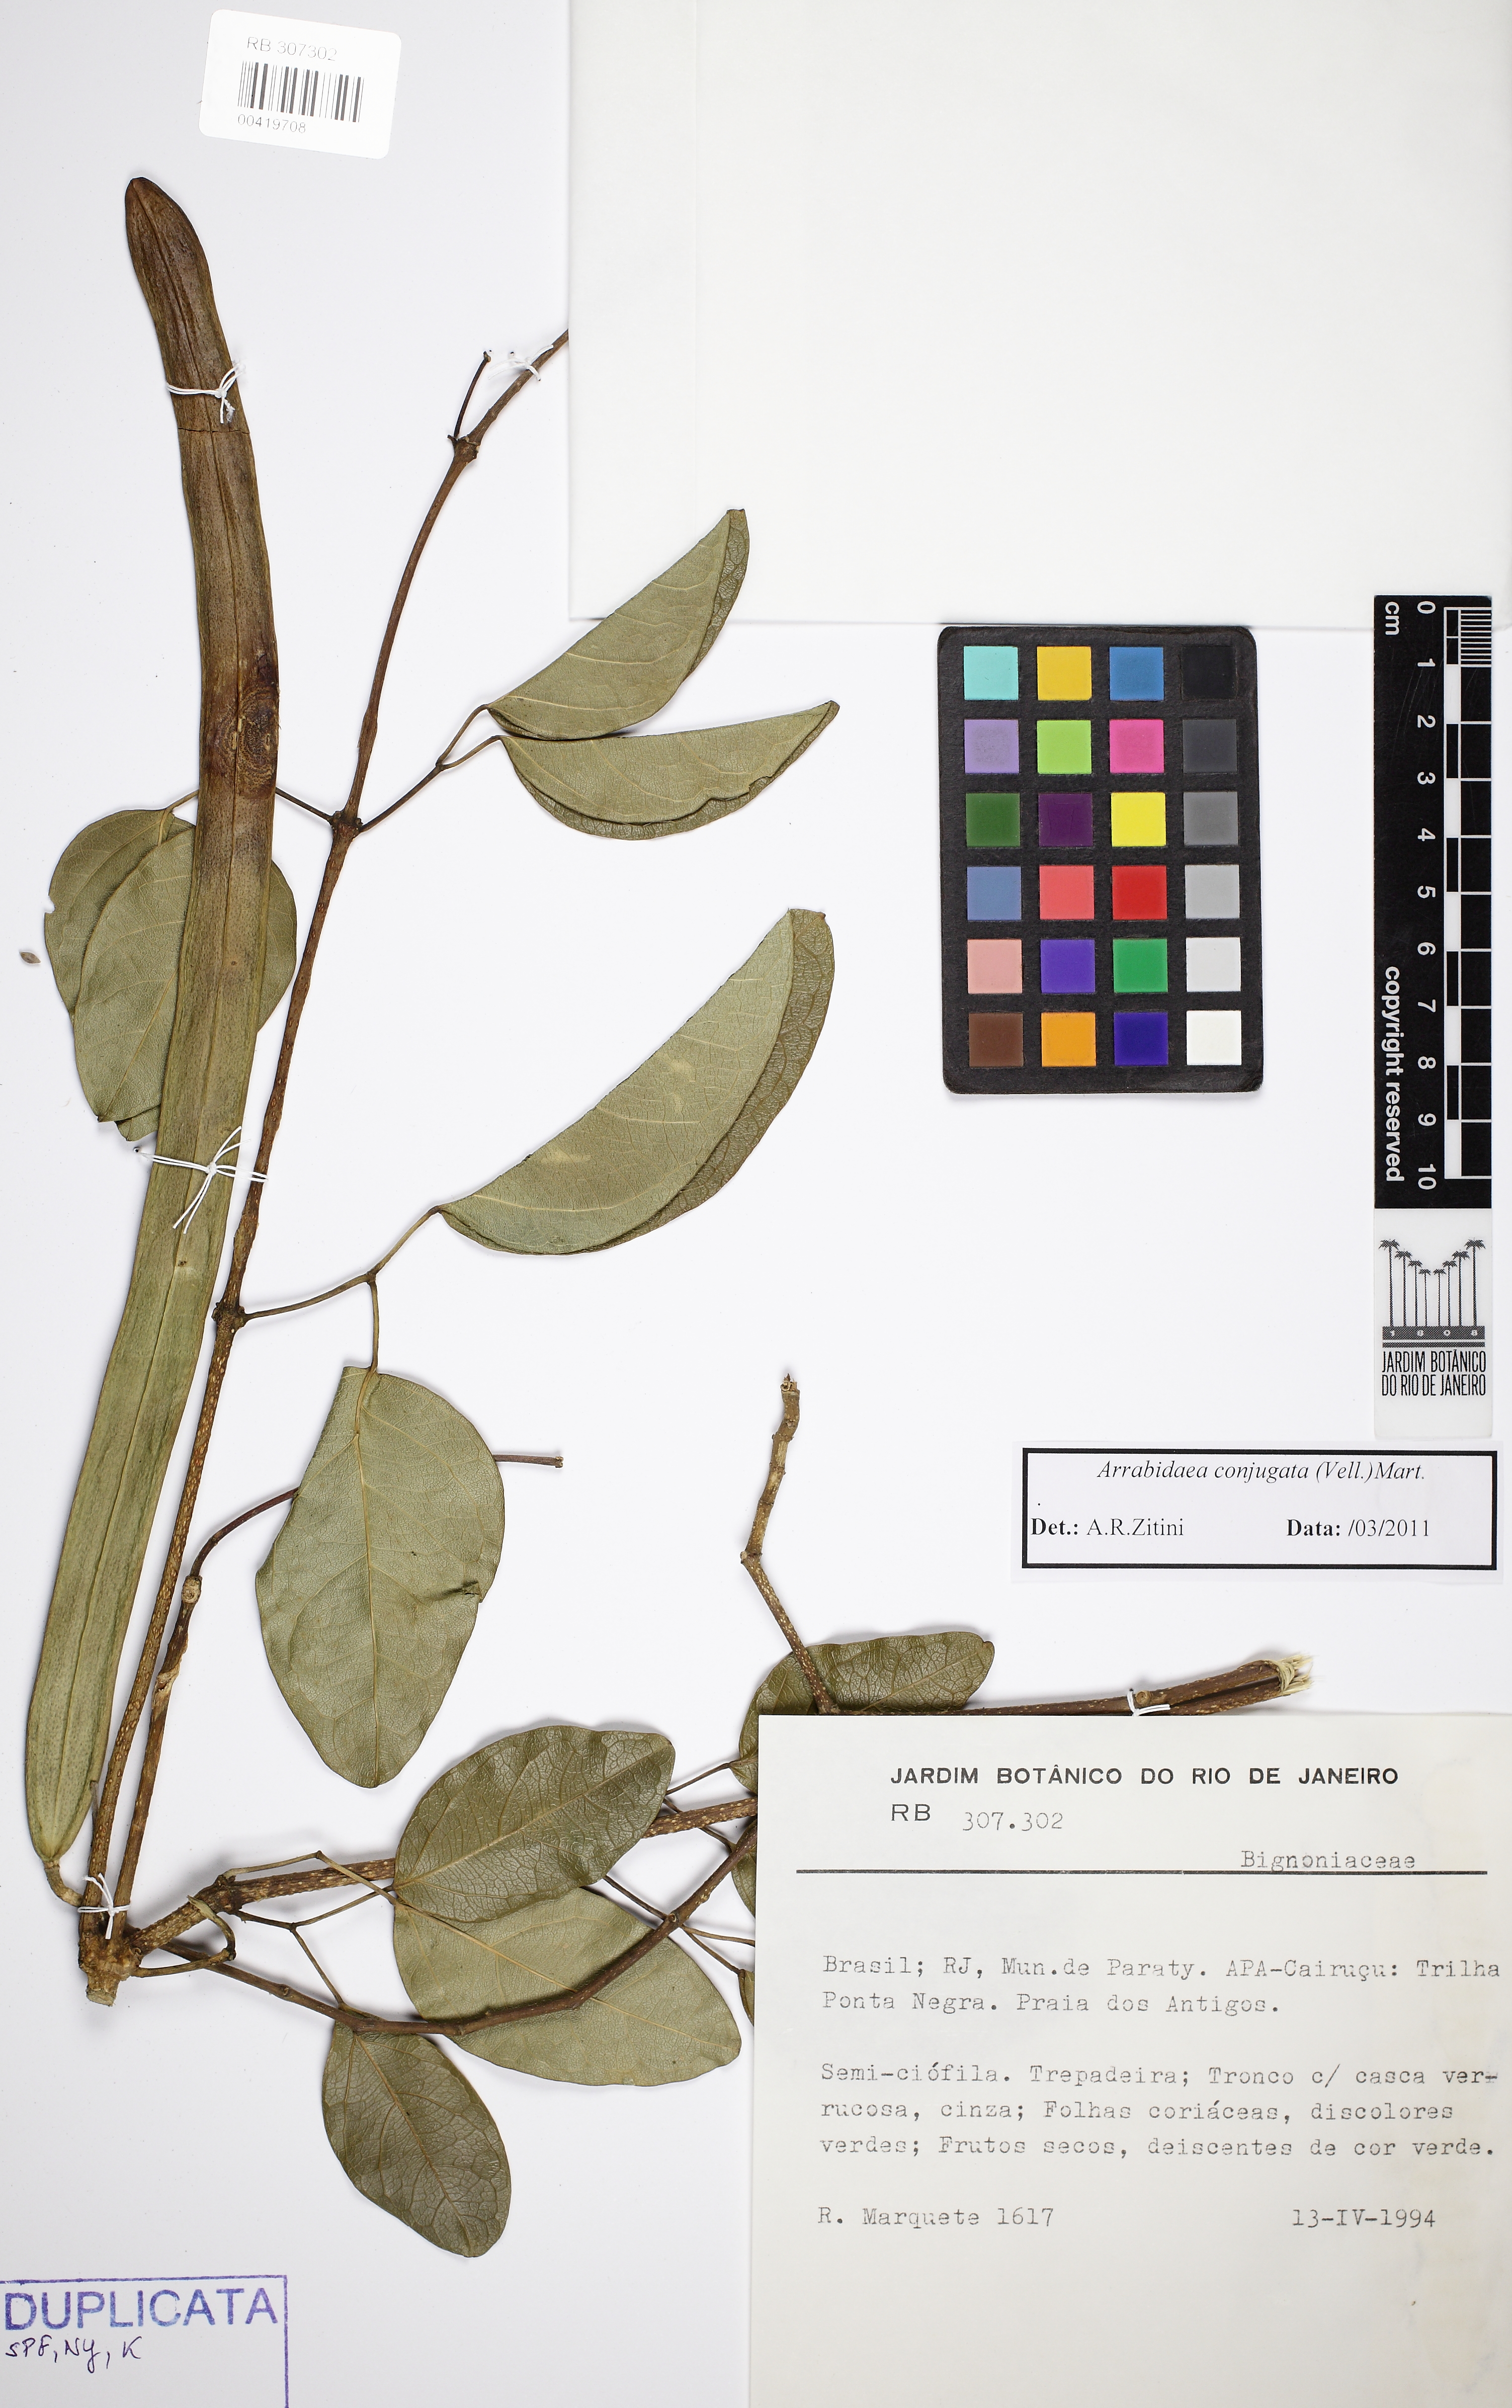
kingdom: Plantae
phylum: Tracheophyta
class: Magnoliopsida
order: Lamiales
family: Bignoniaceae
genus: Fridericia
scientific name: Fridericia conjugata
